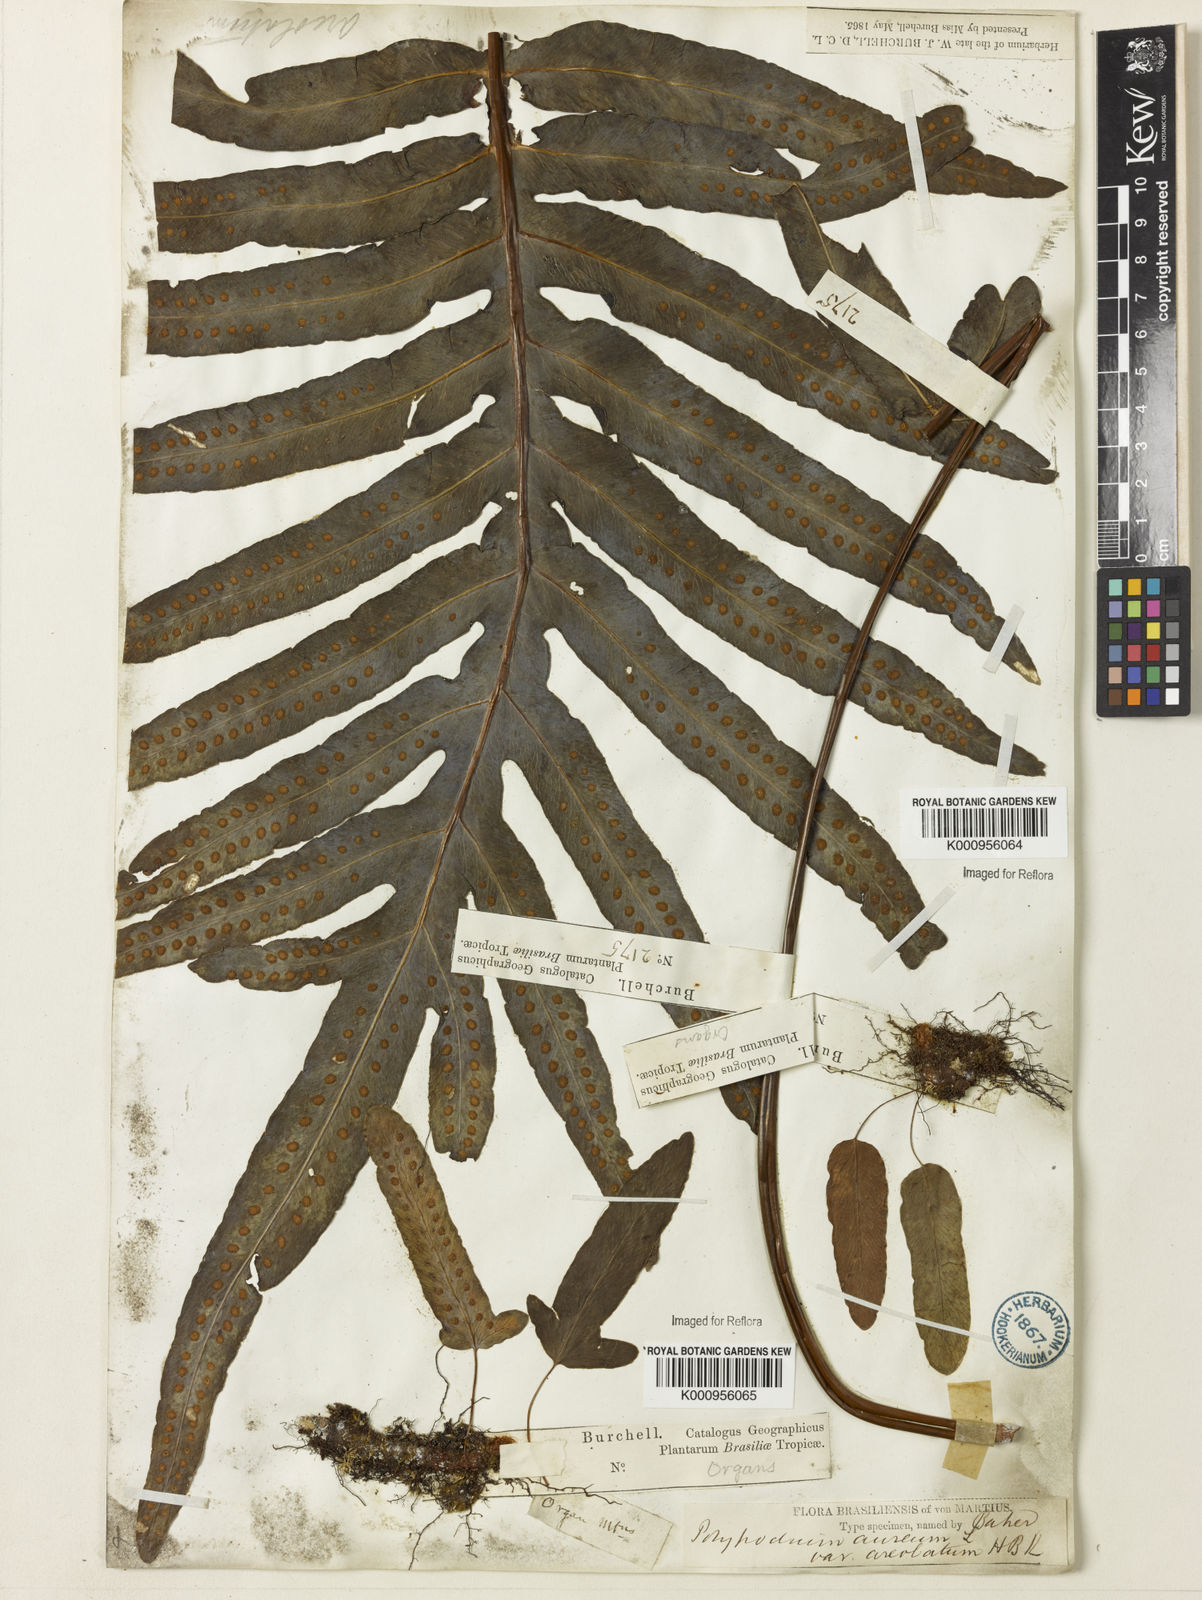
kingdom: Plantae
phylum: Tracheophyta
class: Polypodiopsida
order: Polypodiales
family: Polypodiaceae
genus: Phlebodium
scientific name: Phlebodium aureum
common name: Gold-foot fern
